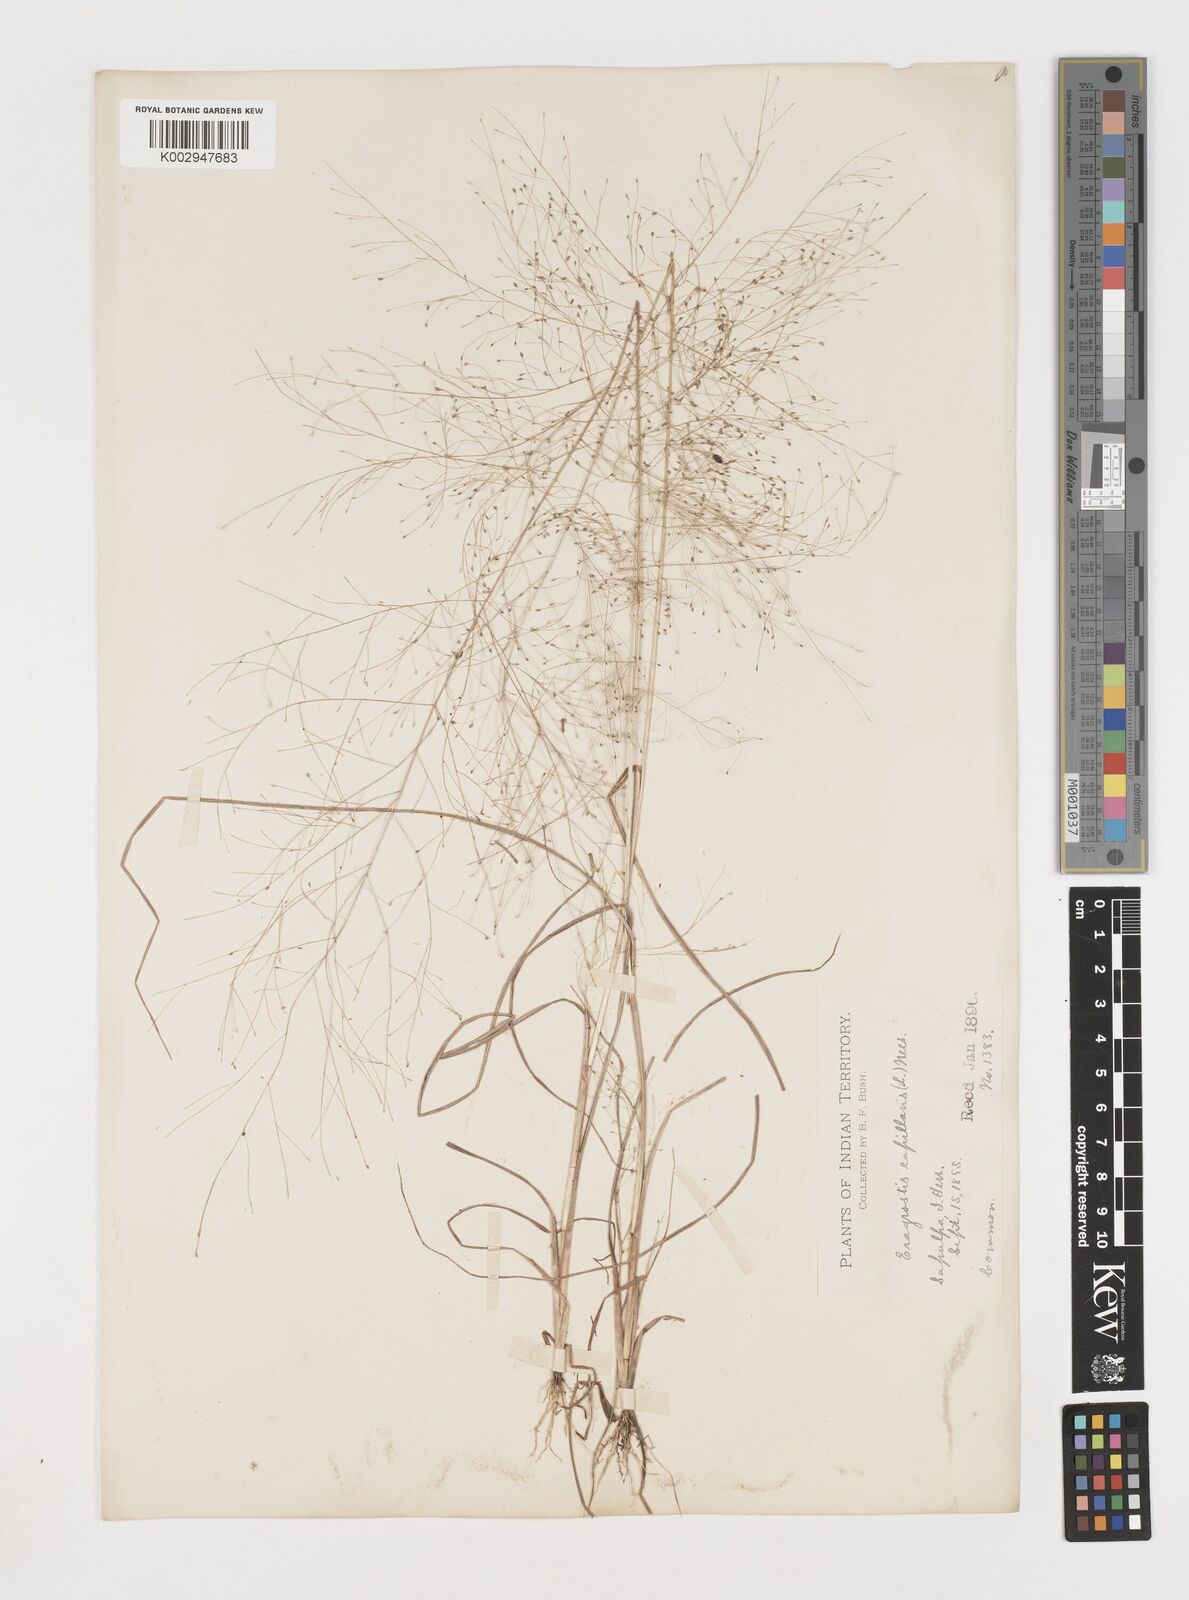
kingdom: Plantae
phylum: Tracheophyta
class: Liliopsida
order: Poales
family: Poaceae
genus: Eragrostis
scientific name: Eragrostis capillaris
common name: Hair-like lovegrass
